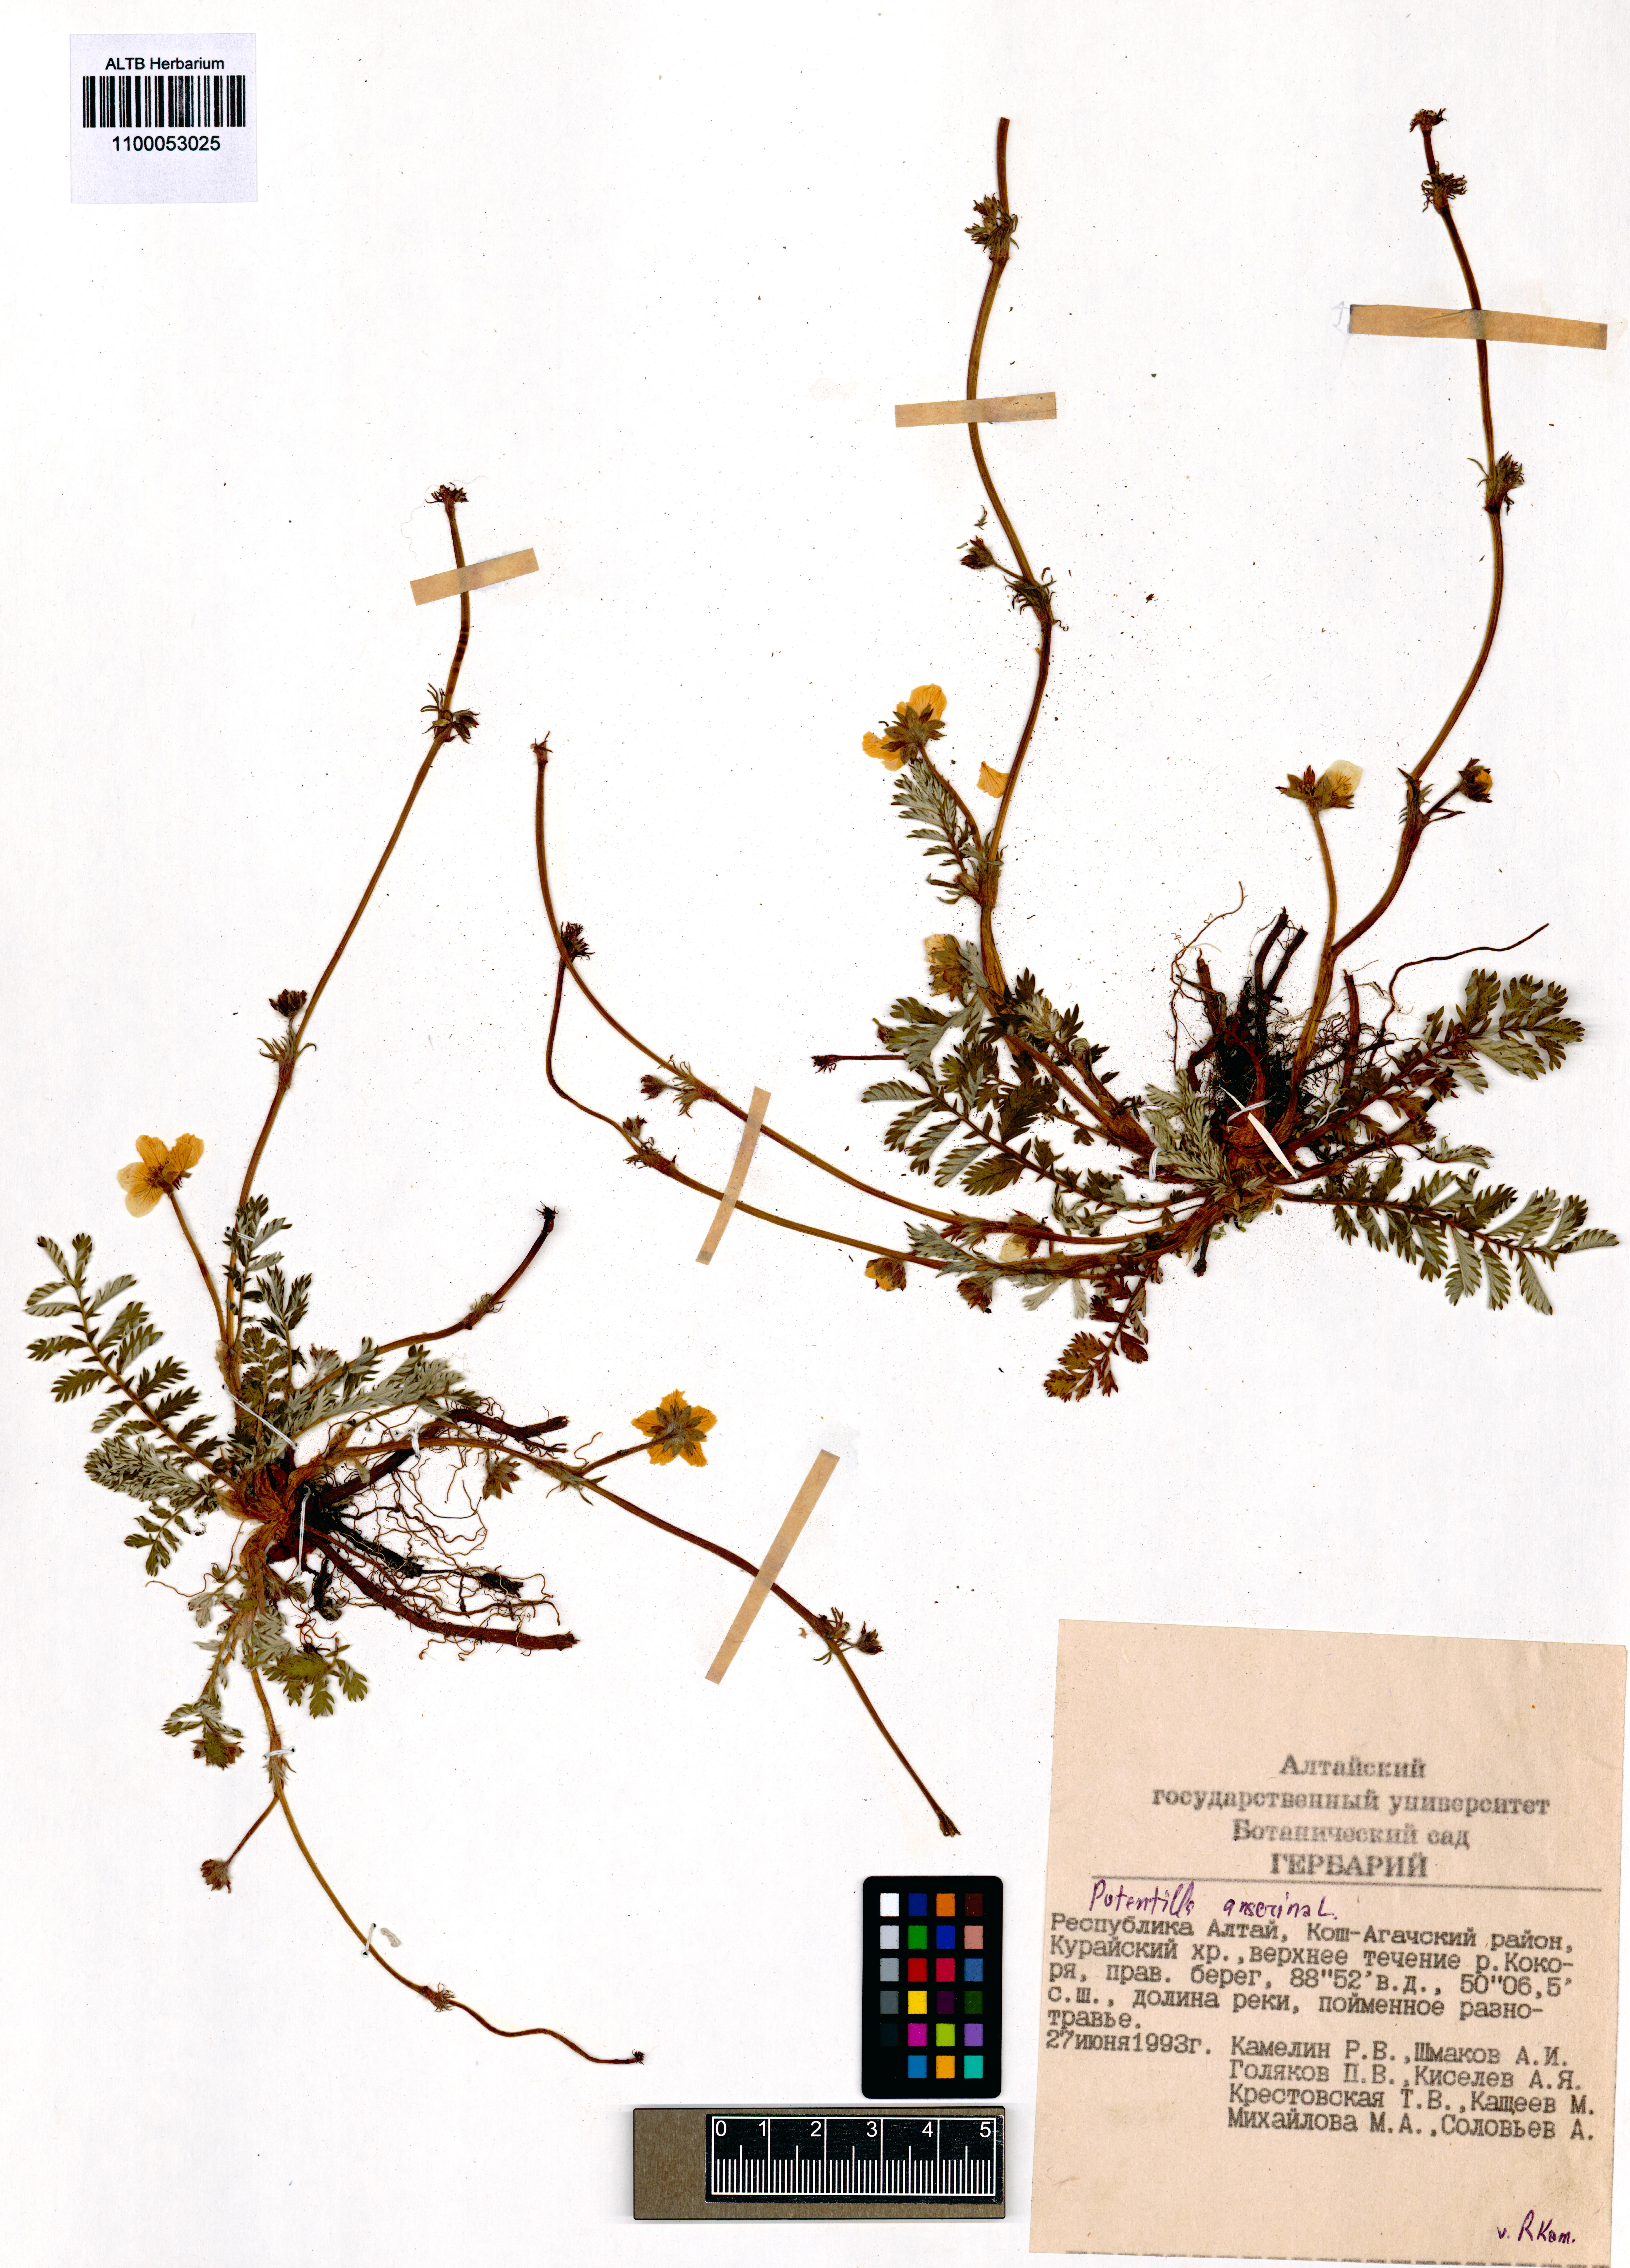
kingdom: Plantae
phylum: Tracheophyta
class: Magnoliopsida
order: Rosales
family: Rosaceae
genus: Argentina
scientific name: Argentina anserina
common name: Common silverweed
